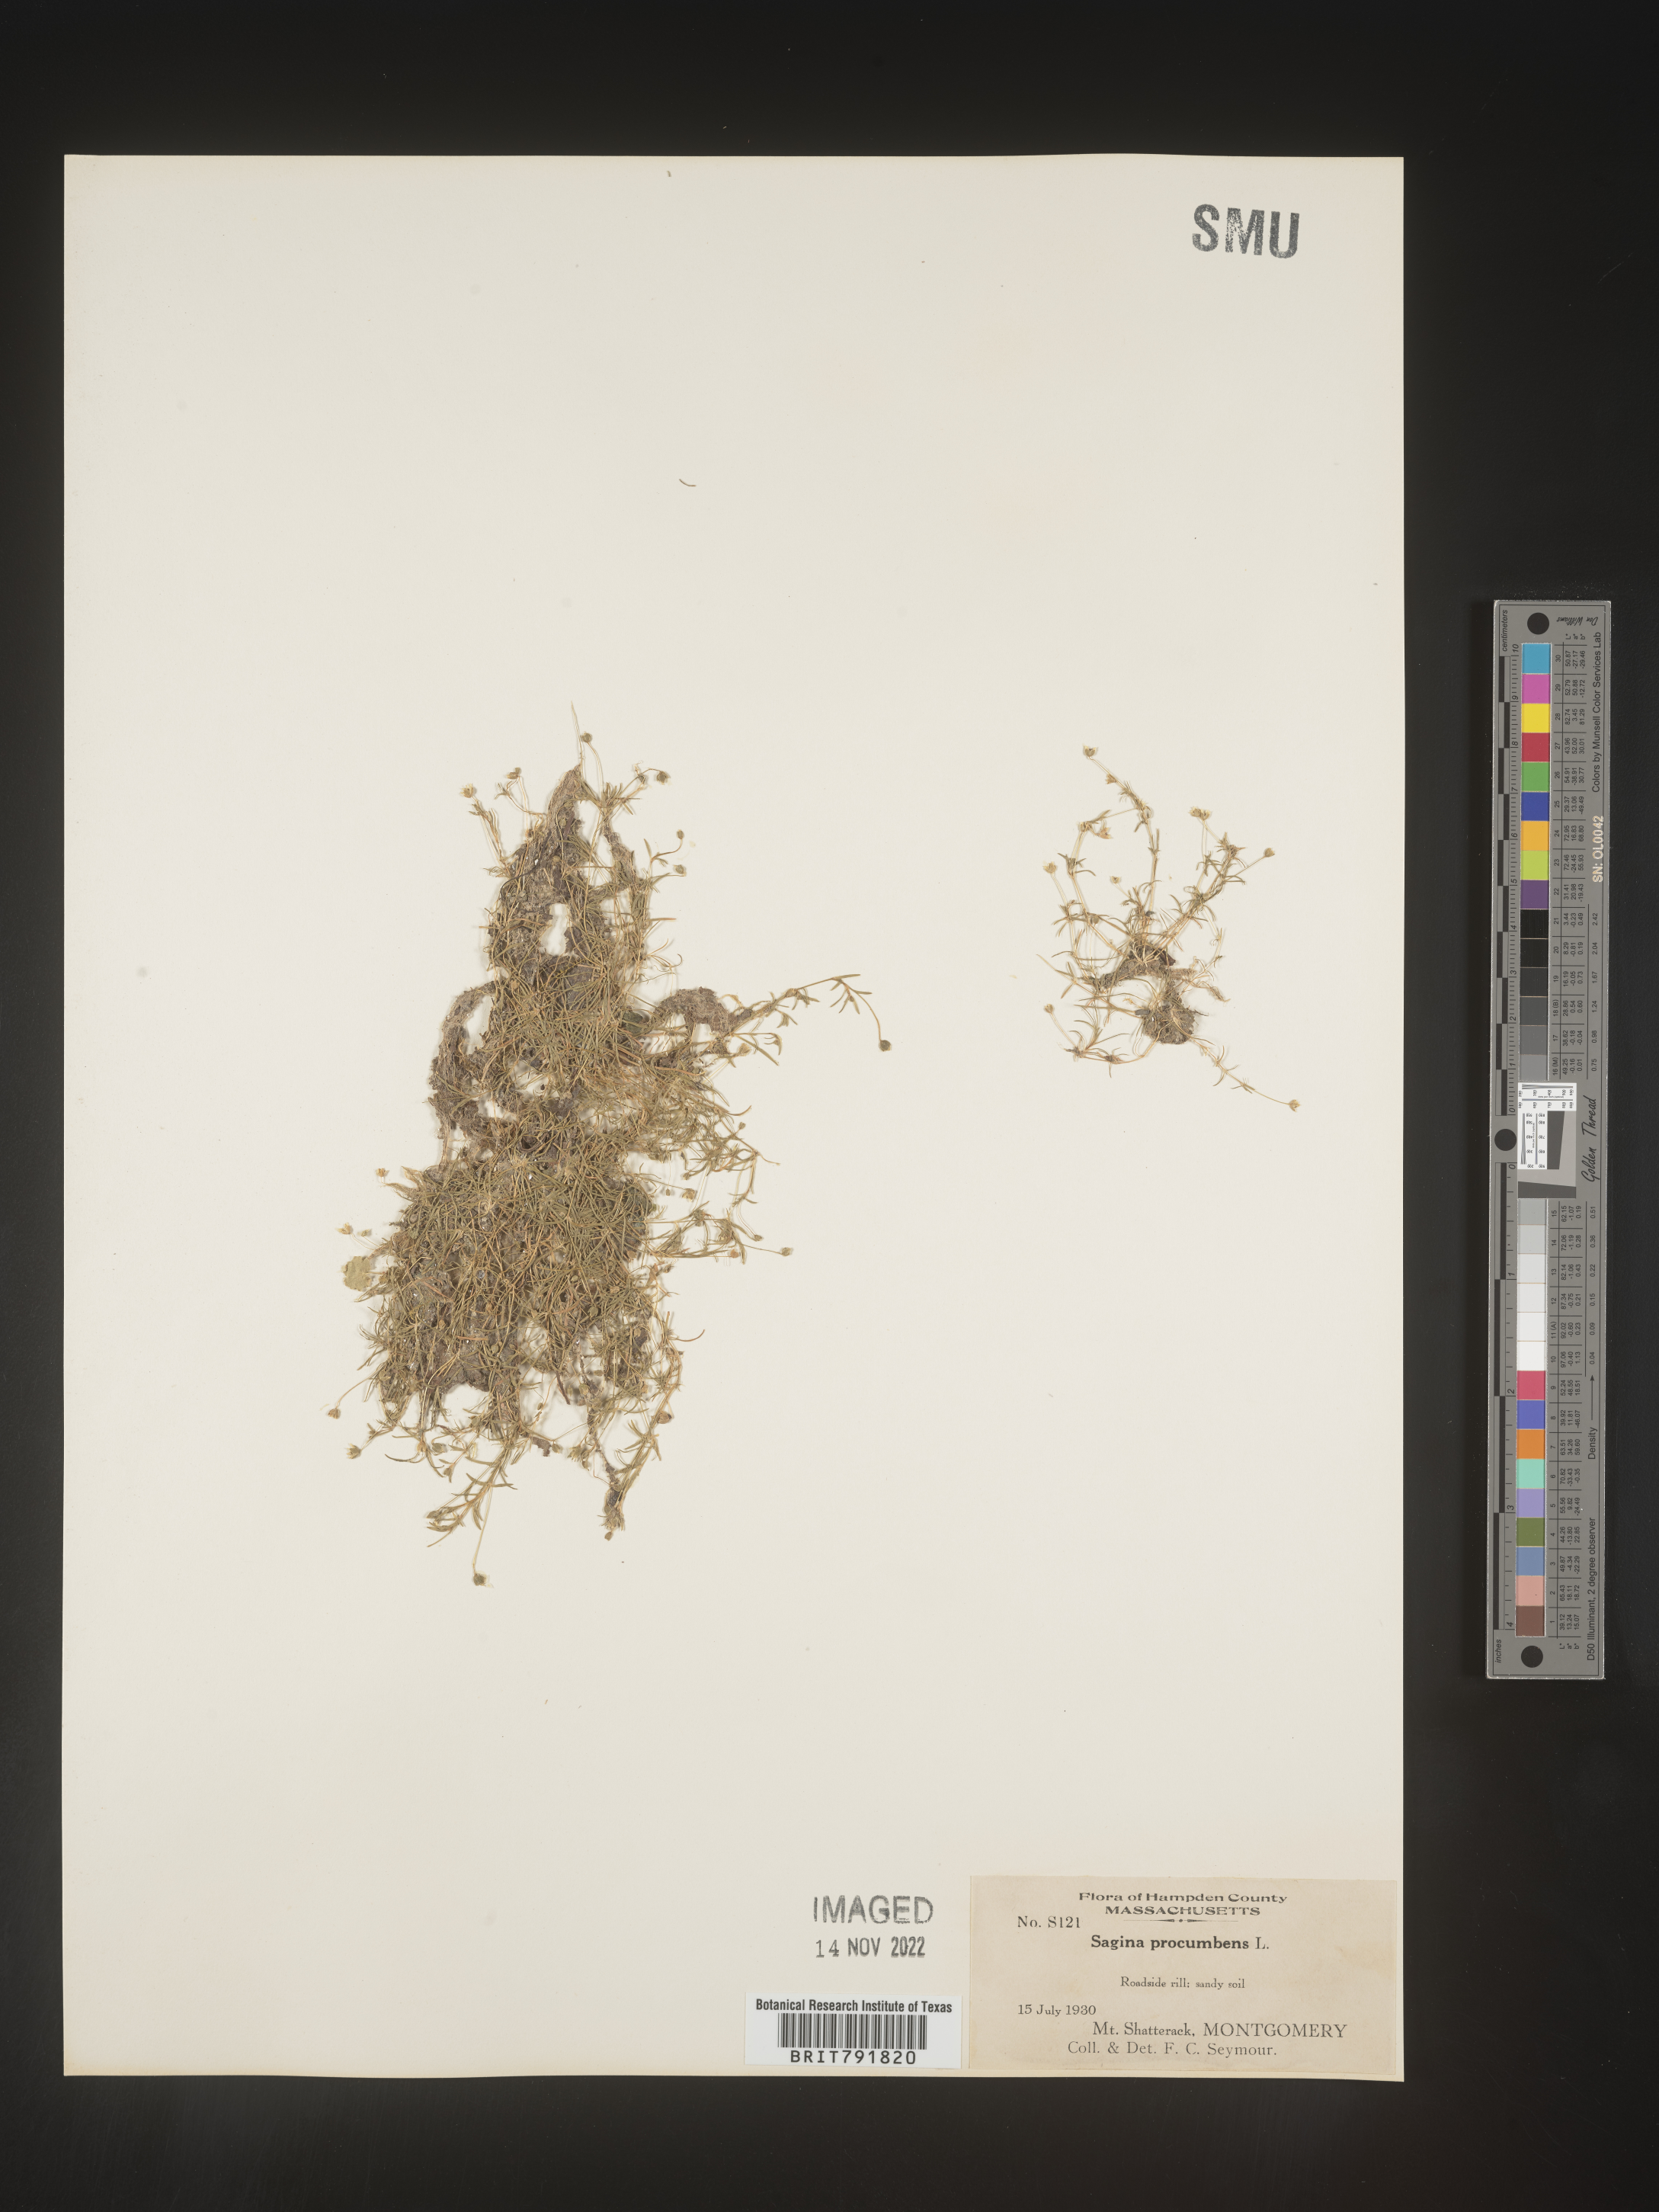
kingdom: Plantae
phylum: Tracheophyta
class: Magnoliopsida
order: Caryophyllales
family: Caryophyllaceae
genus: Sagina
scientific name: Sagina
